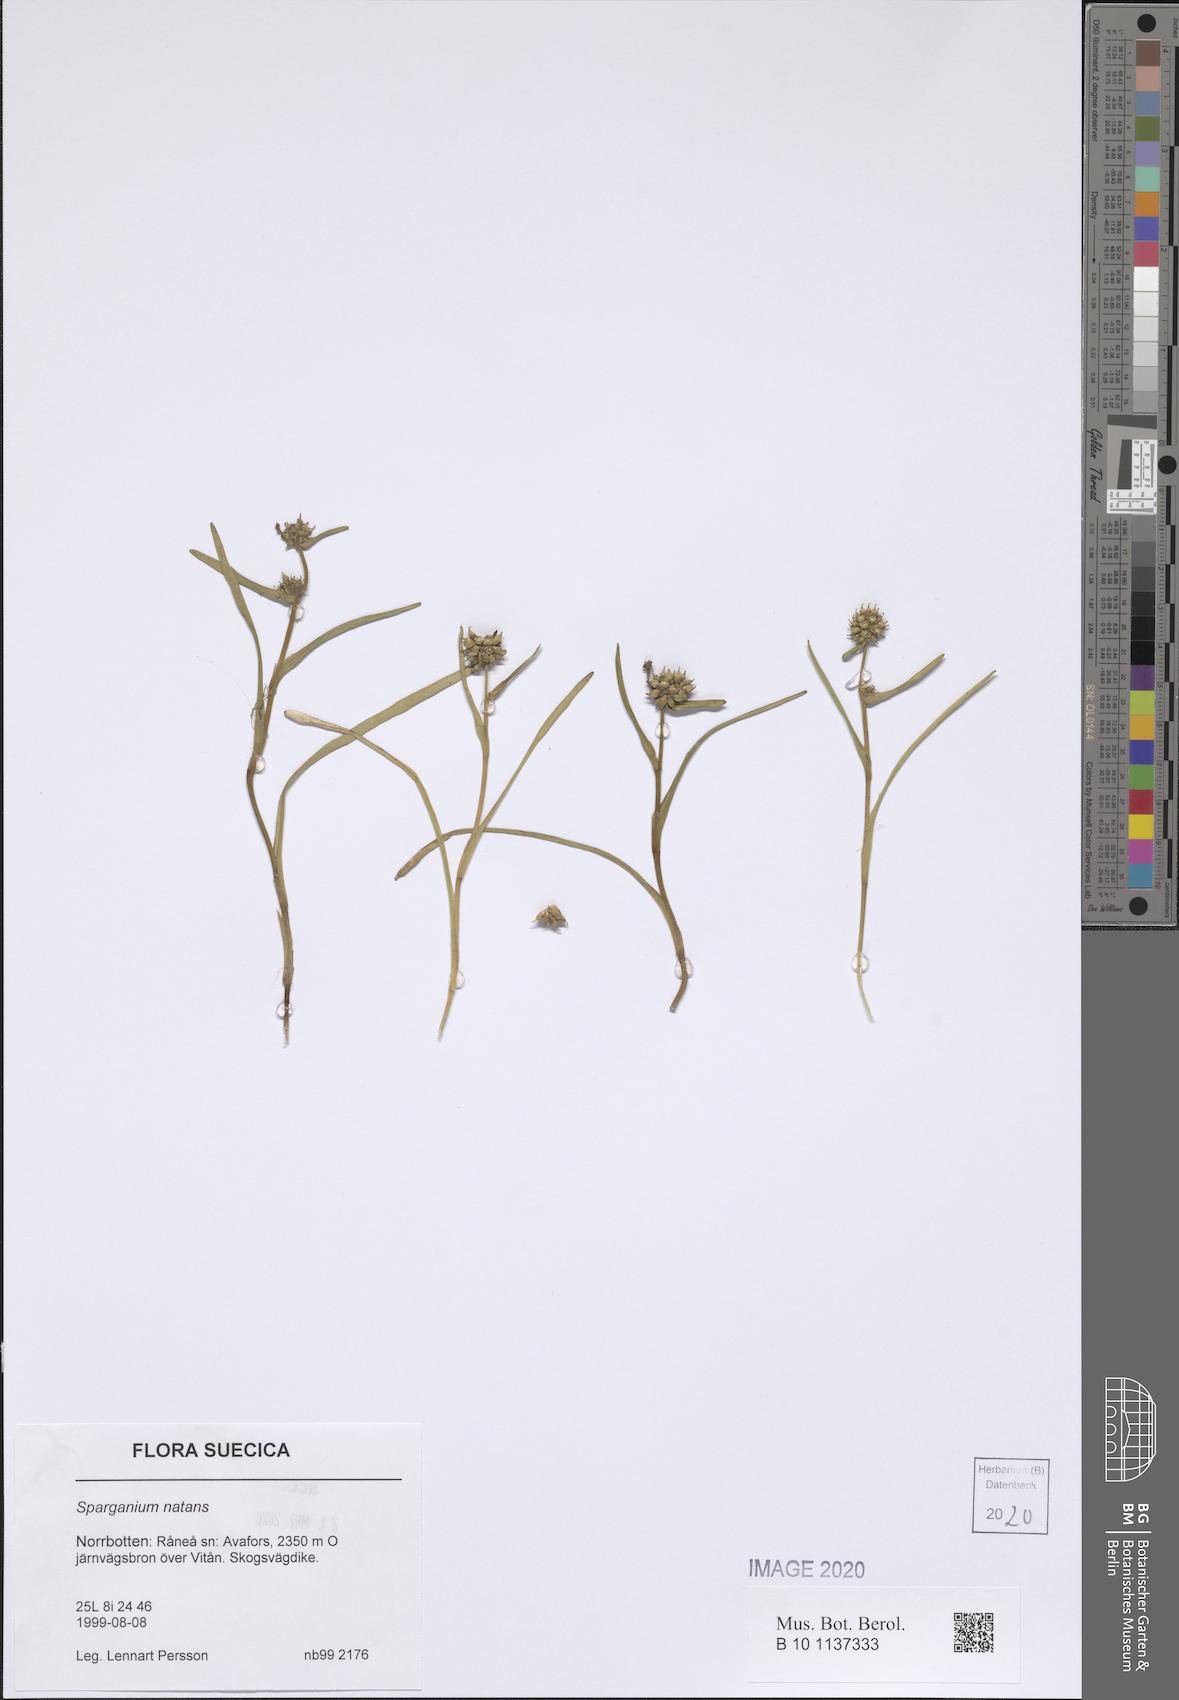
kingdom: Plantae
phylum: Tracheophyta
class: Liliopsida
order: Poales
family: Typhaceae
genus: Sparganium
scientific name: Sparganium natans
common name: Least bur-reed
